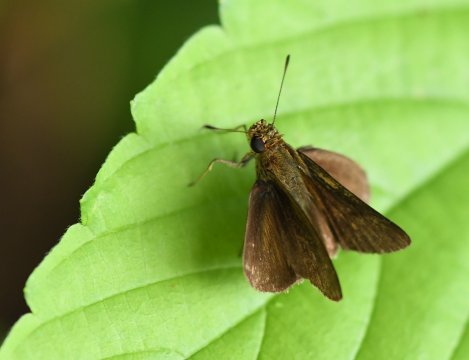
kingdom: Animalia
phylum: Arthropoda
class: Insecta
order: Lepidoptera
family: Hesperiidae
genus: Corticea
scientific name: Corticea corticea
